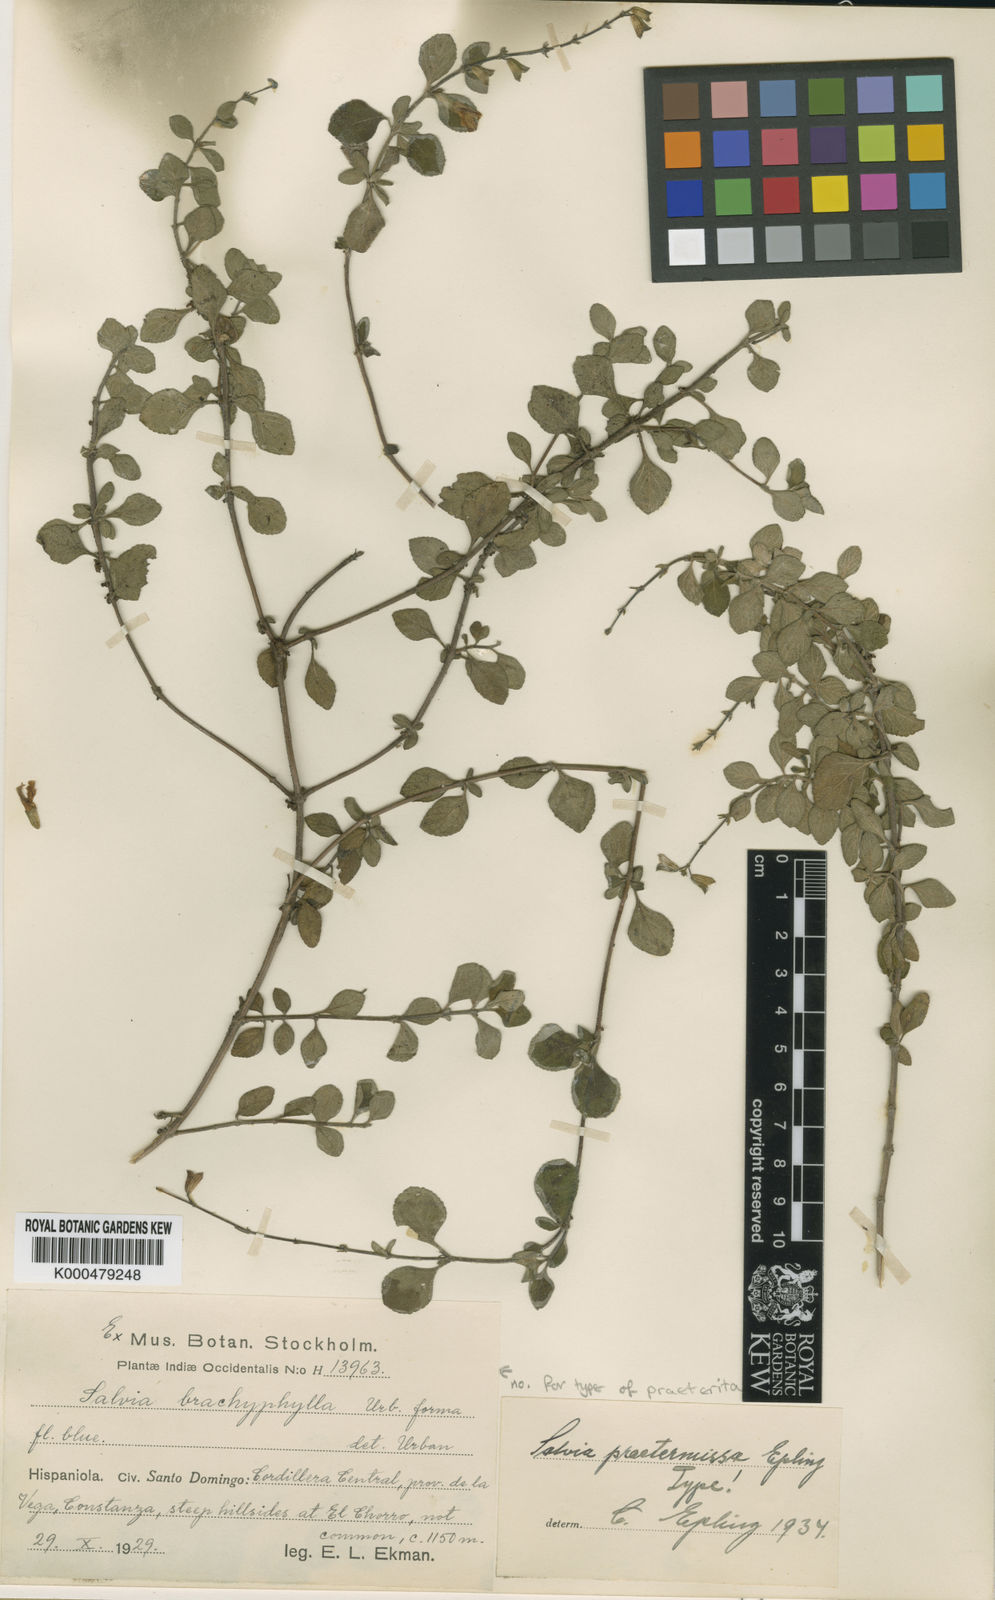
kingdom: Plantae
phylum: Tracheophyta
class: Magnoliopsida
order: Lamiales
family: Lamiaceae
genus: Salvia
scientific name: Salvia praeterita
